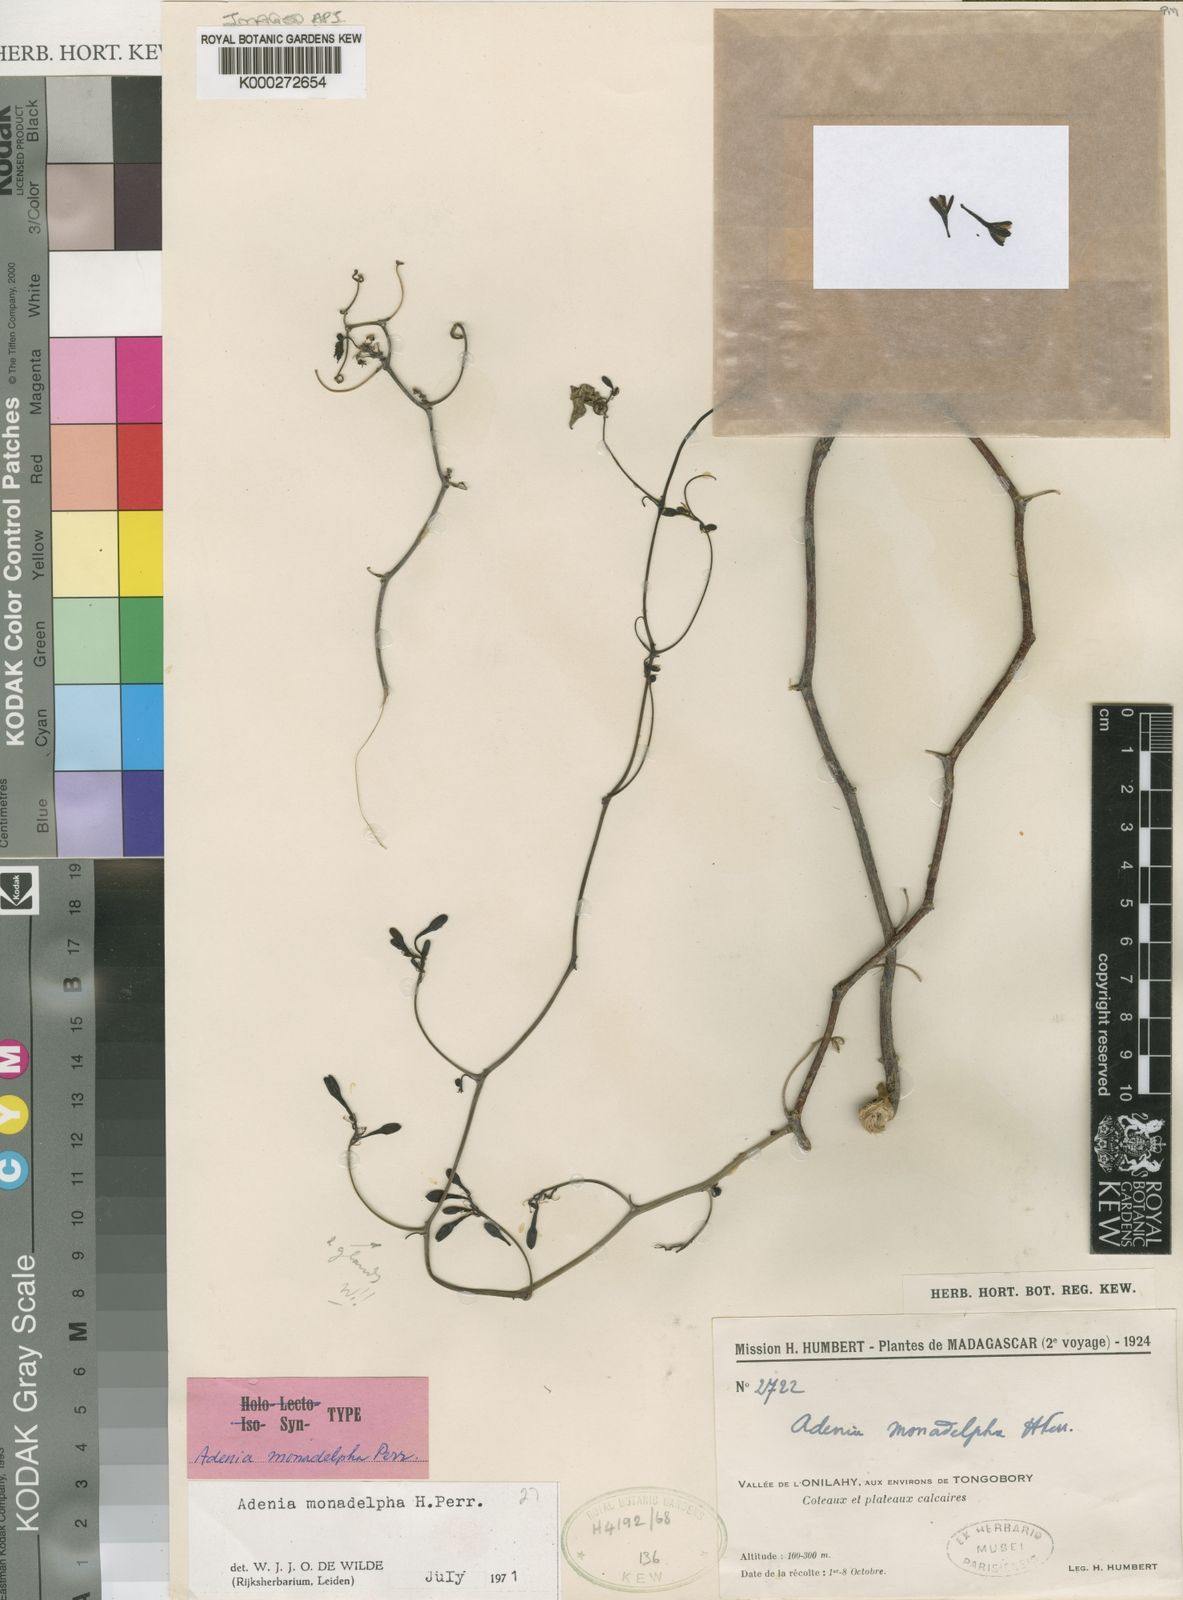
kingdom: Plantae
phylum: Tracheophyta
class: Magnoliopsida
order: Malpighiales
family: Passifloraceae
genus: Adenia
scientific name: Adenia monadelpha
